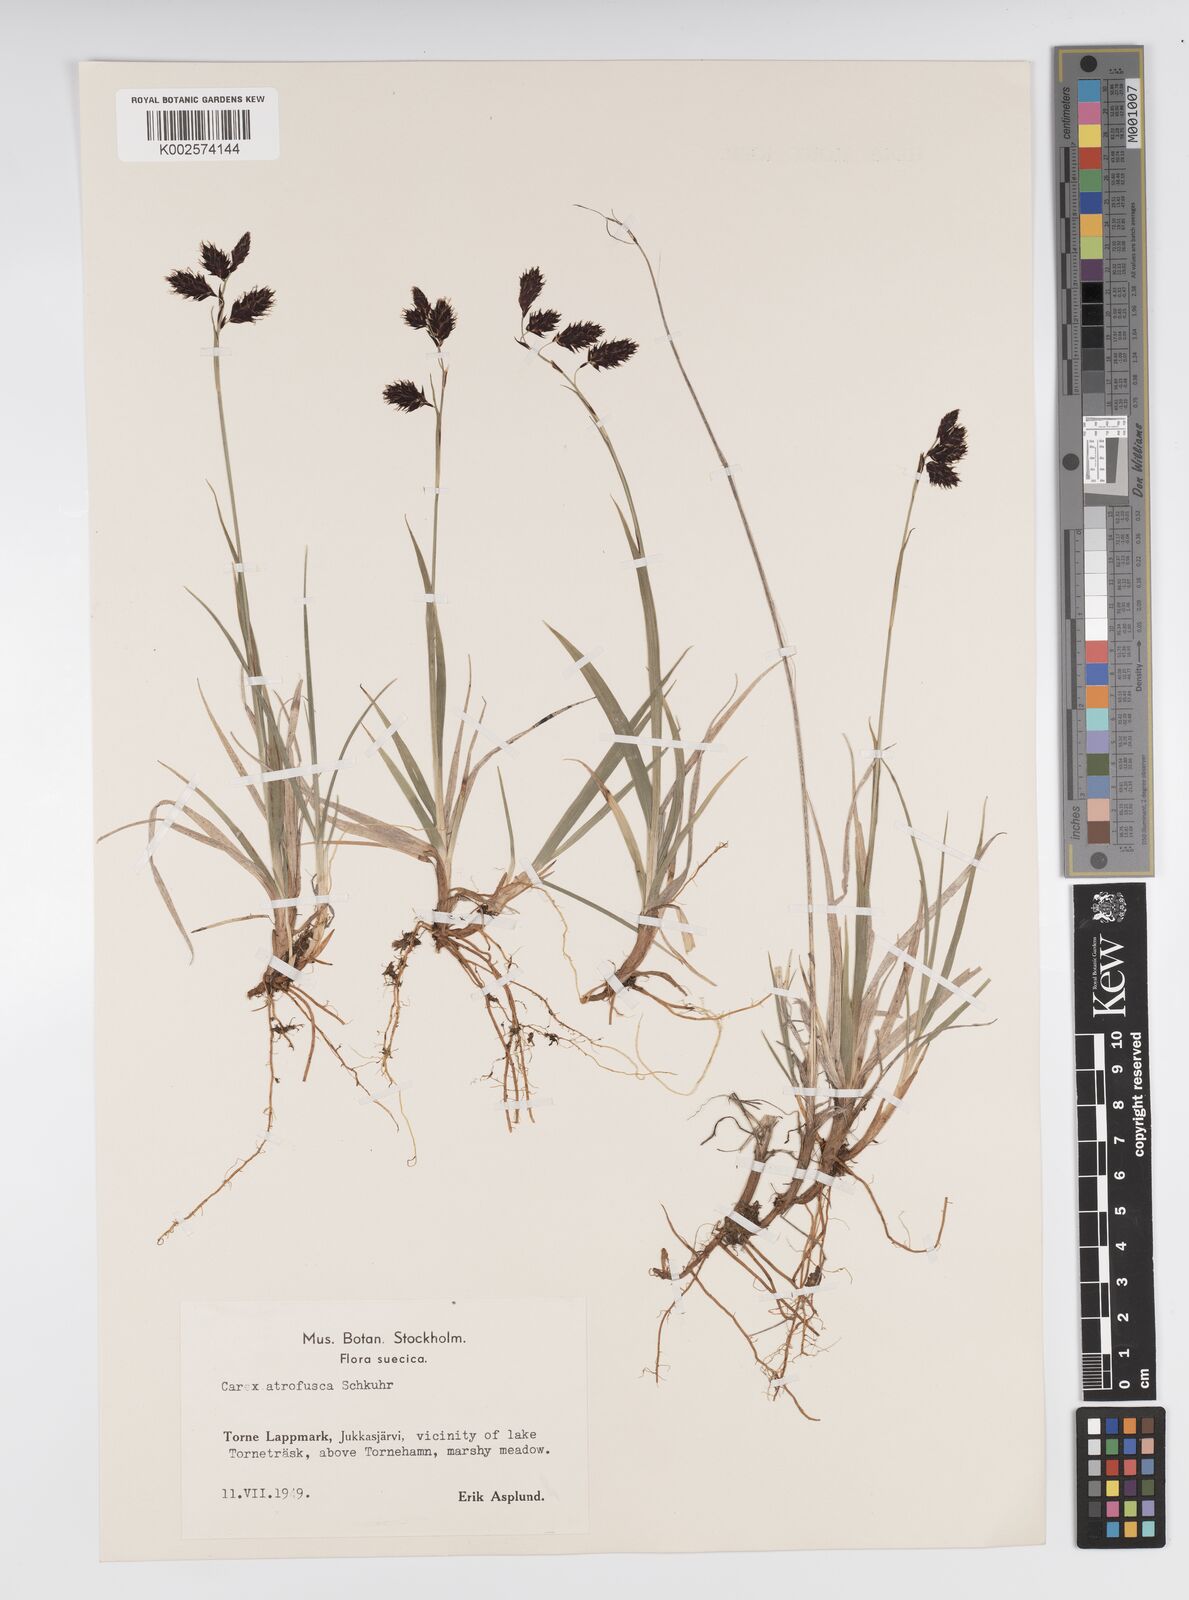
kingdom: Plantae
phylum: Tracheophyta
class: Liliopsida
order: Poales
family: Cyperaceae
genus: Carex
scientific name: Carex atrofusca
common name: Scorched alpine-sedge
